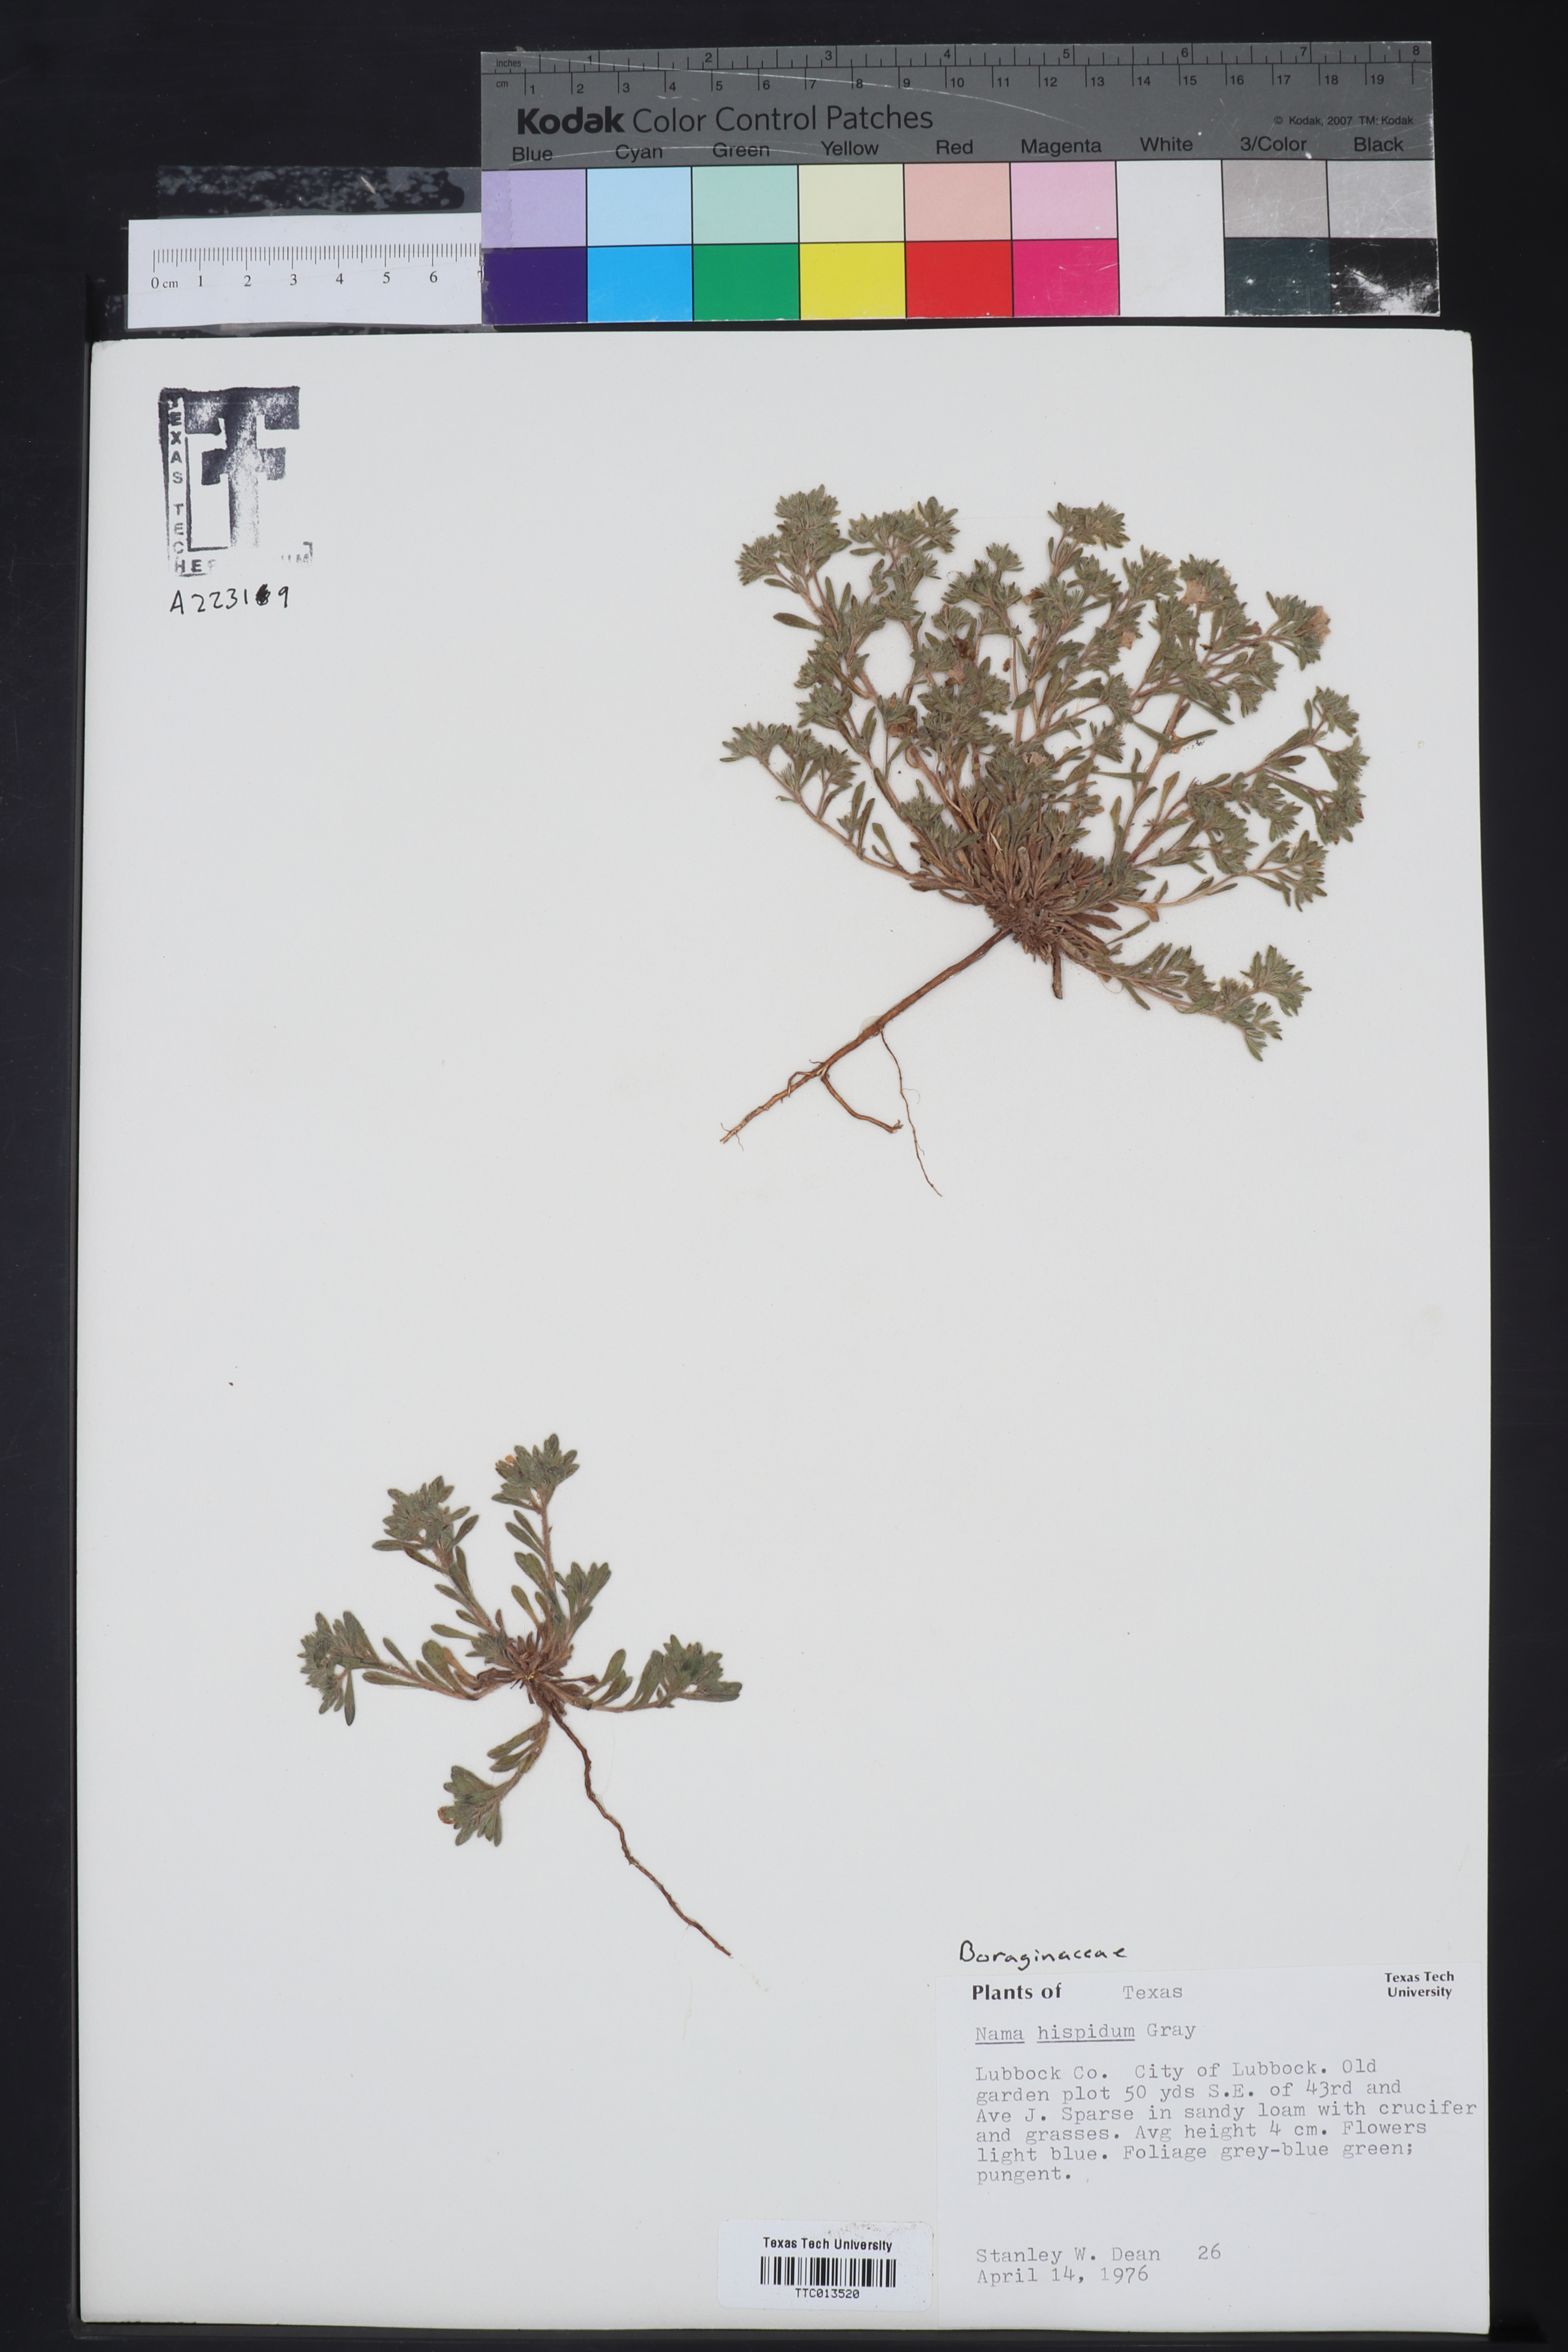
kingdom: Plantae
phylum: Tracheophyta
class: Magnoliopsida
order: Boraginales
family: Namaceae
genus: Nama
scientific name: Nama hispida
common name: Bristly nama
